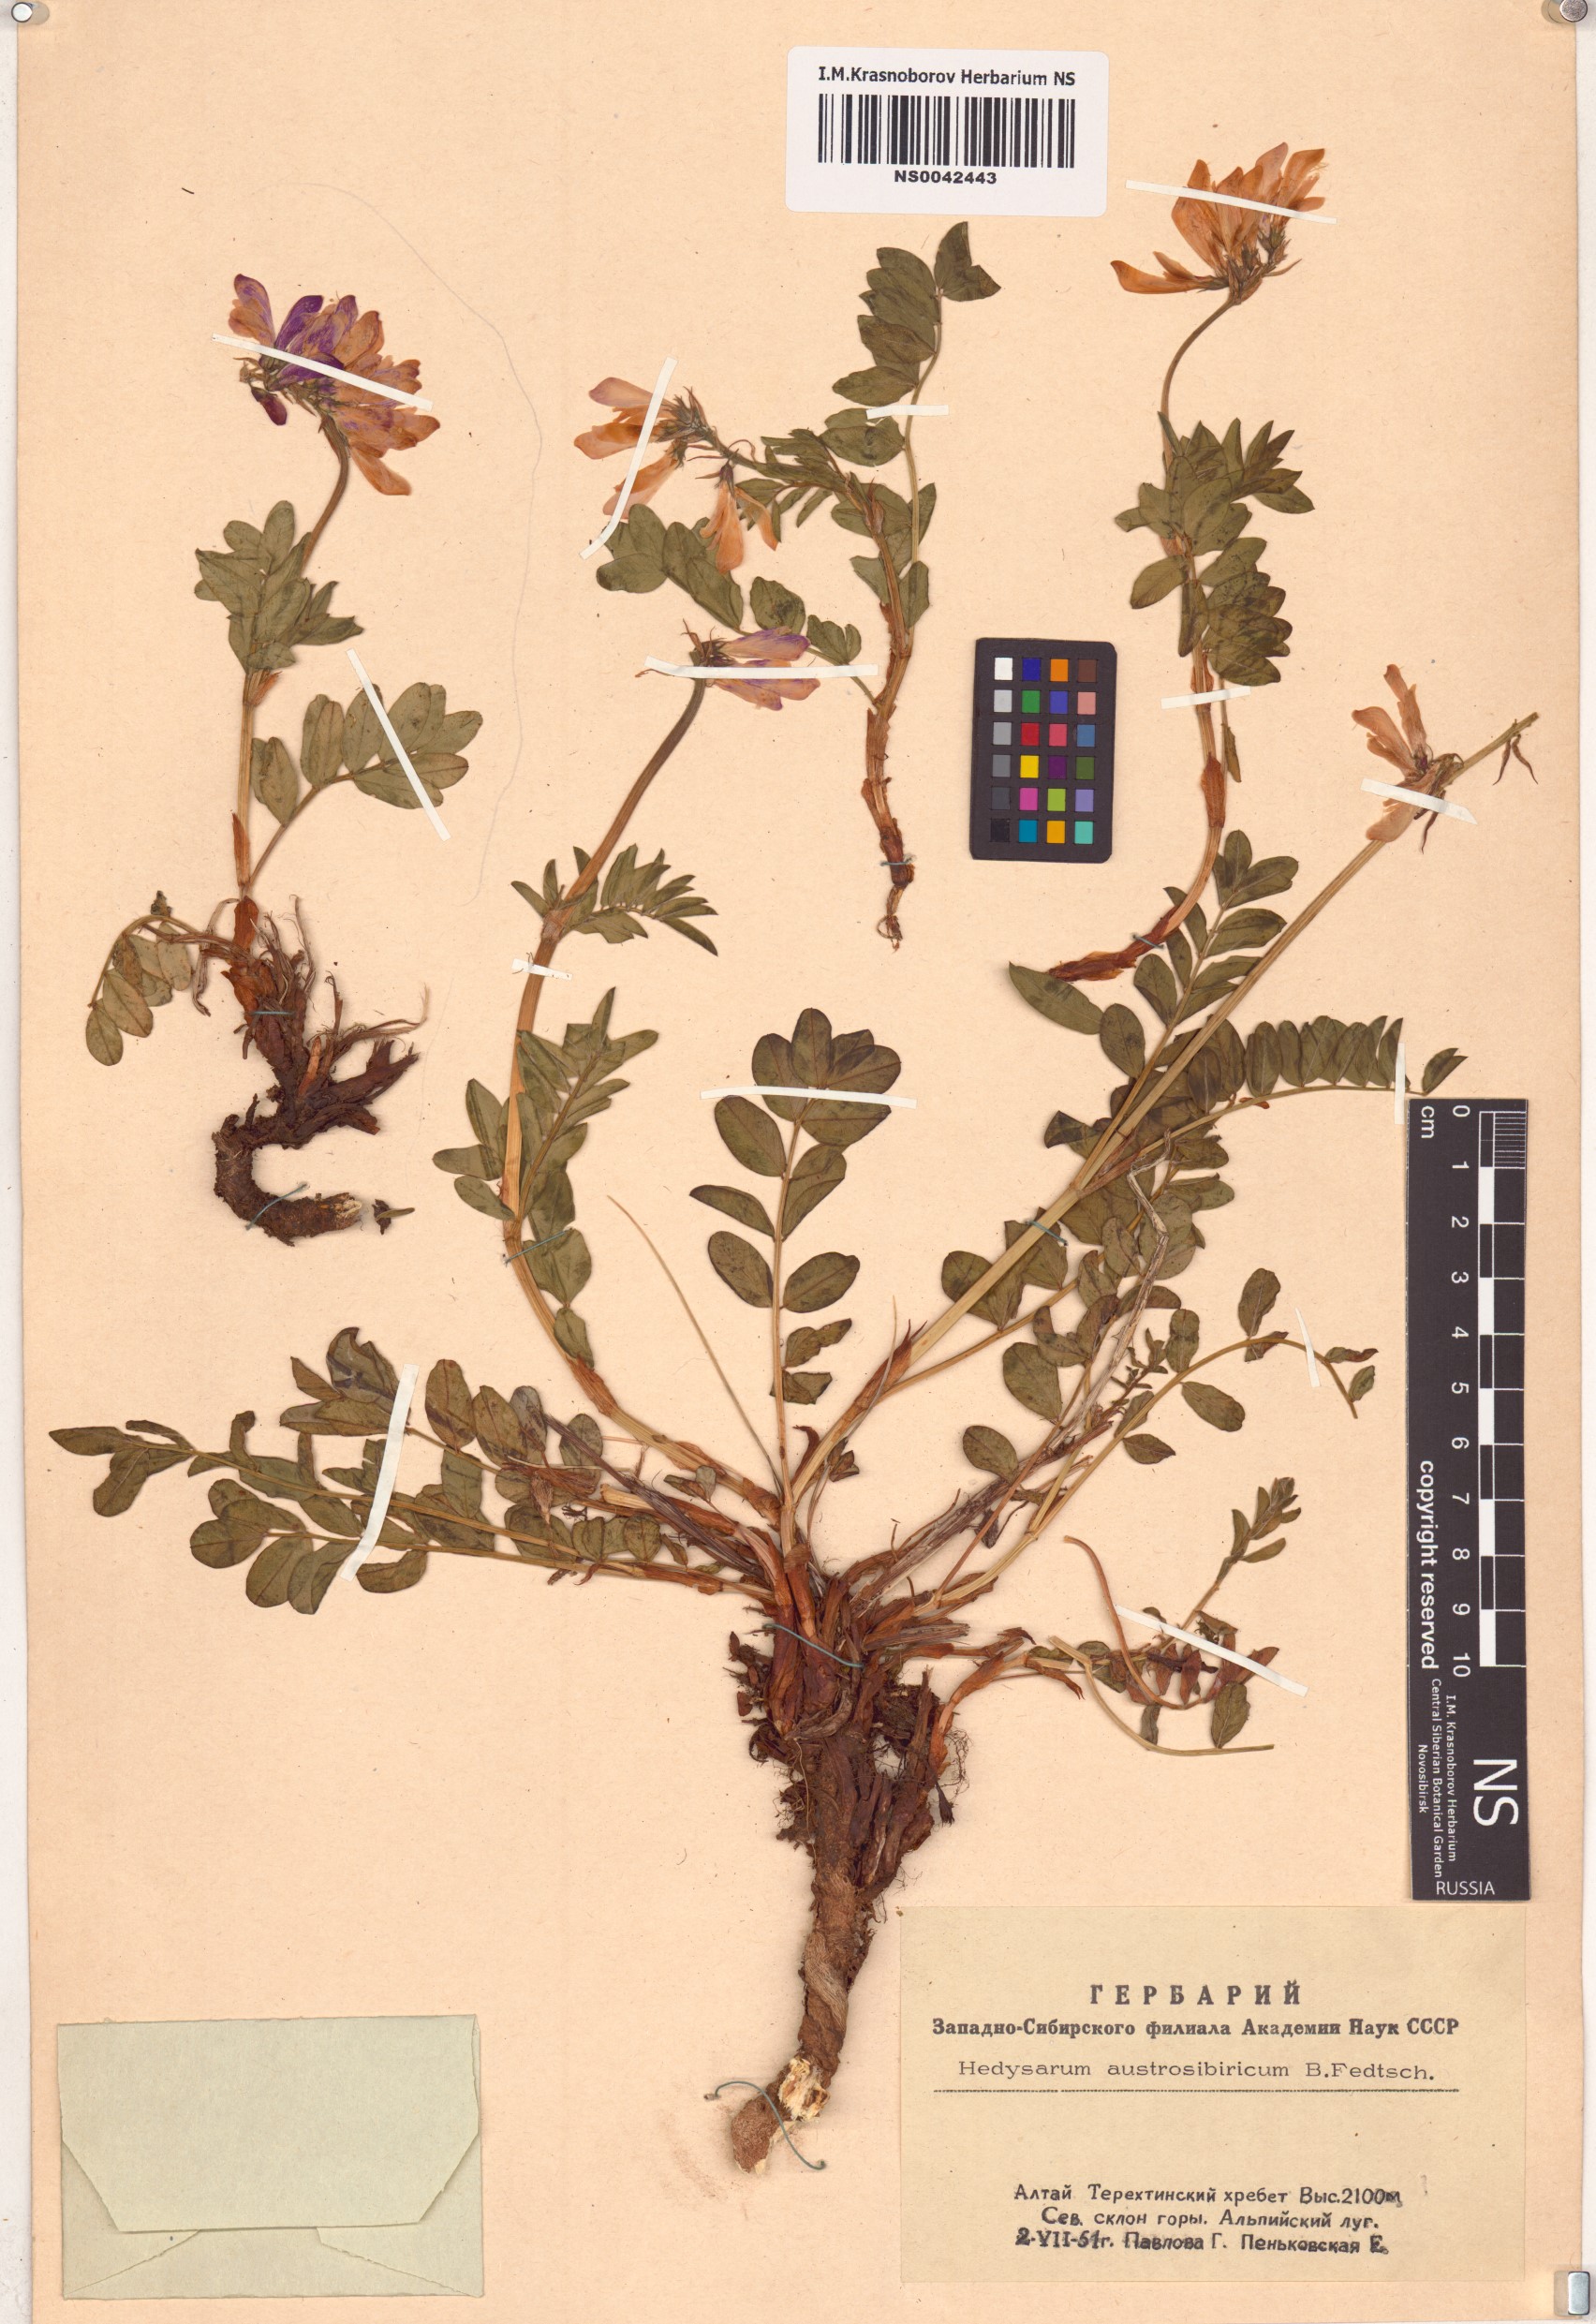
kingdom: Plantae
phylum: Tracheophyta
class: Magnoliopsida
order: Fabales
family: Fabaceae
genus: Hedysarum
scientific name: Hedysarum neglectum
